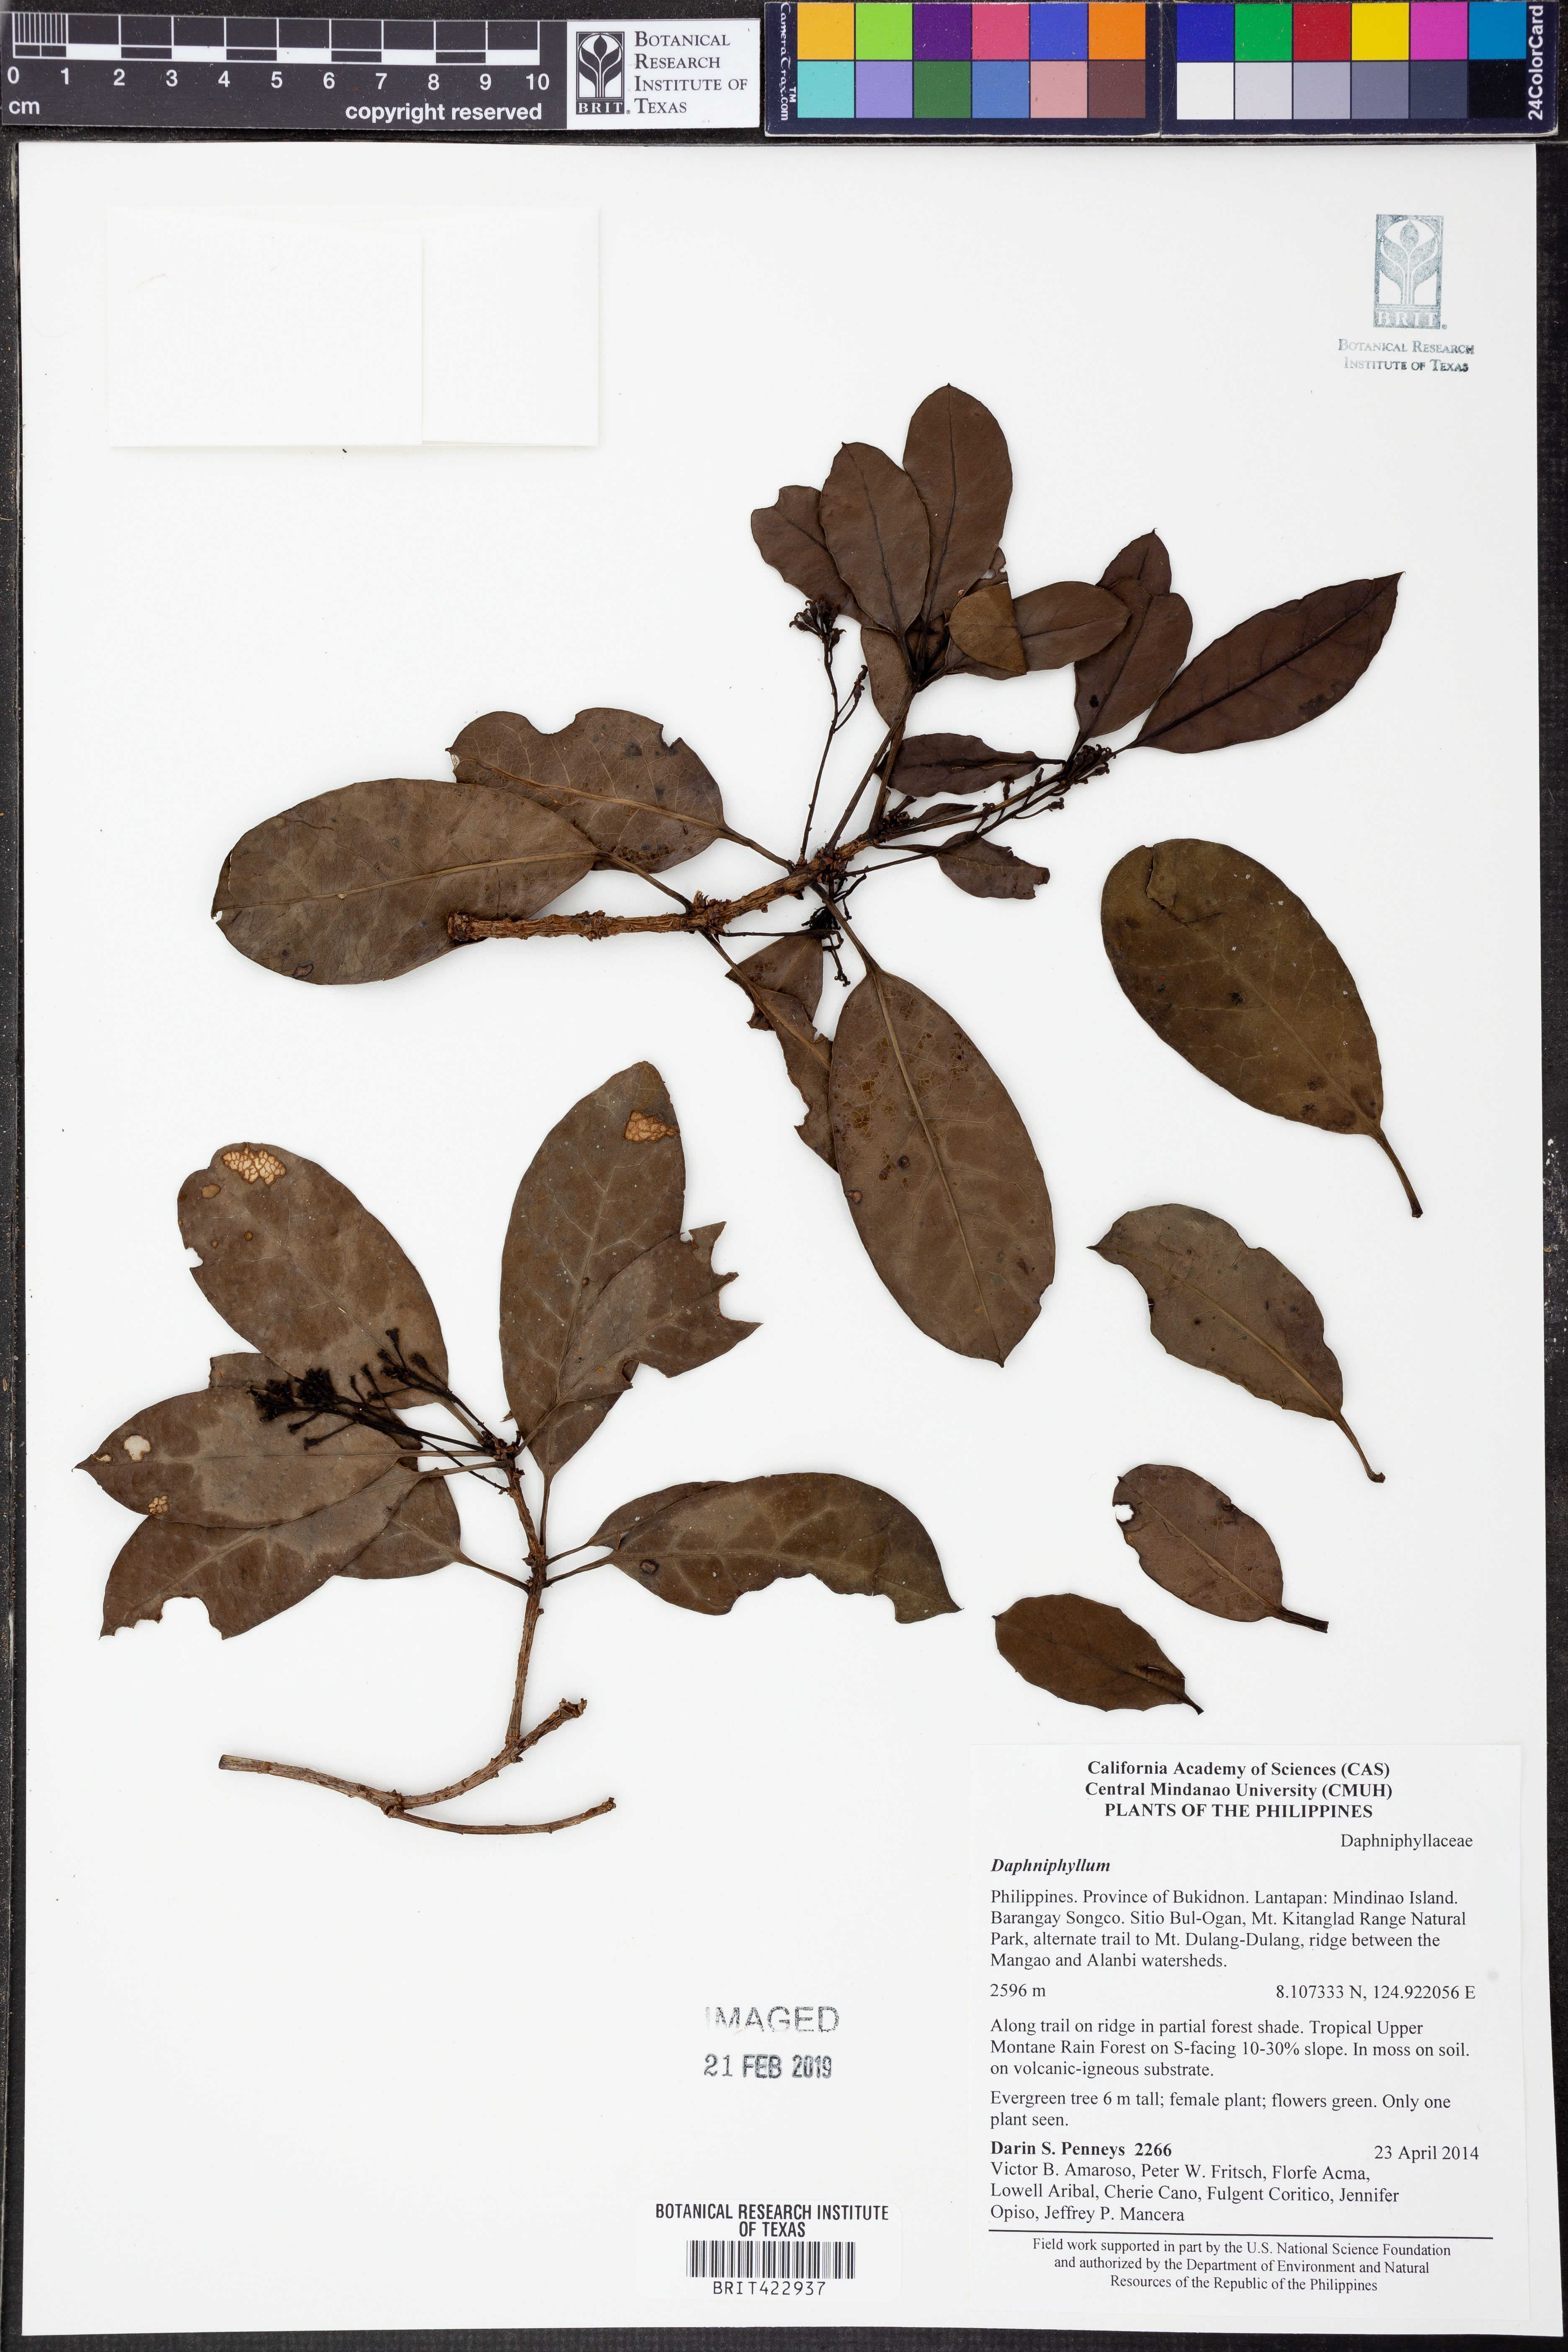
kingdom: Plantae
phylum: Tracheophyta
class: Magnoliopsida
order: Saxifragales
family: Daphniphyllaceae
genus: Daphniphyllum
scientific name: Daphniphyllum
